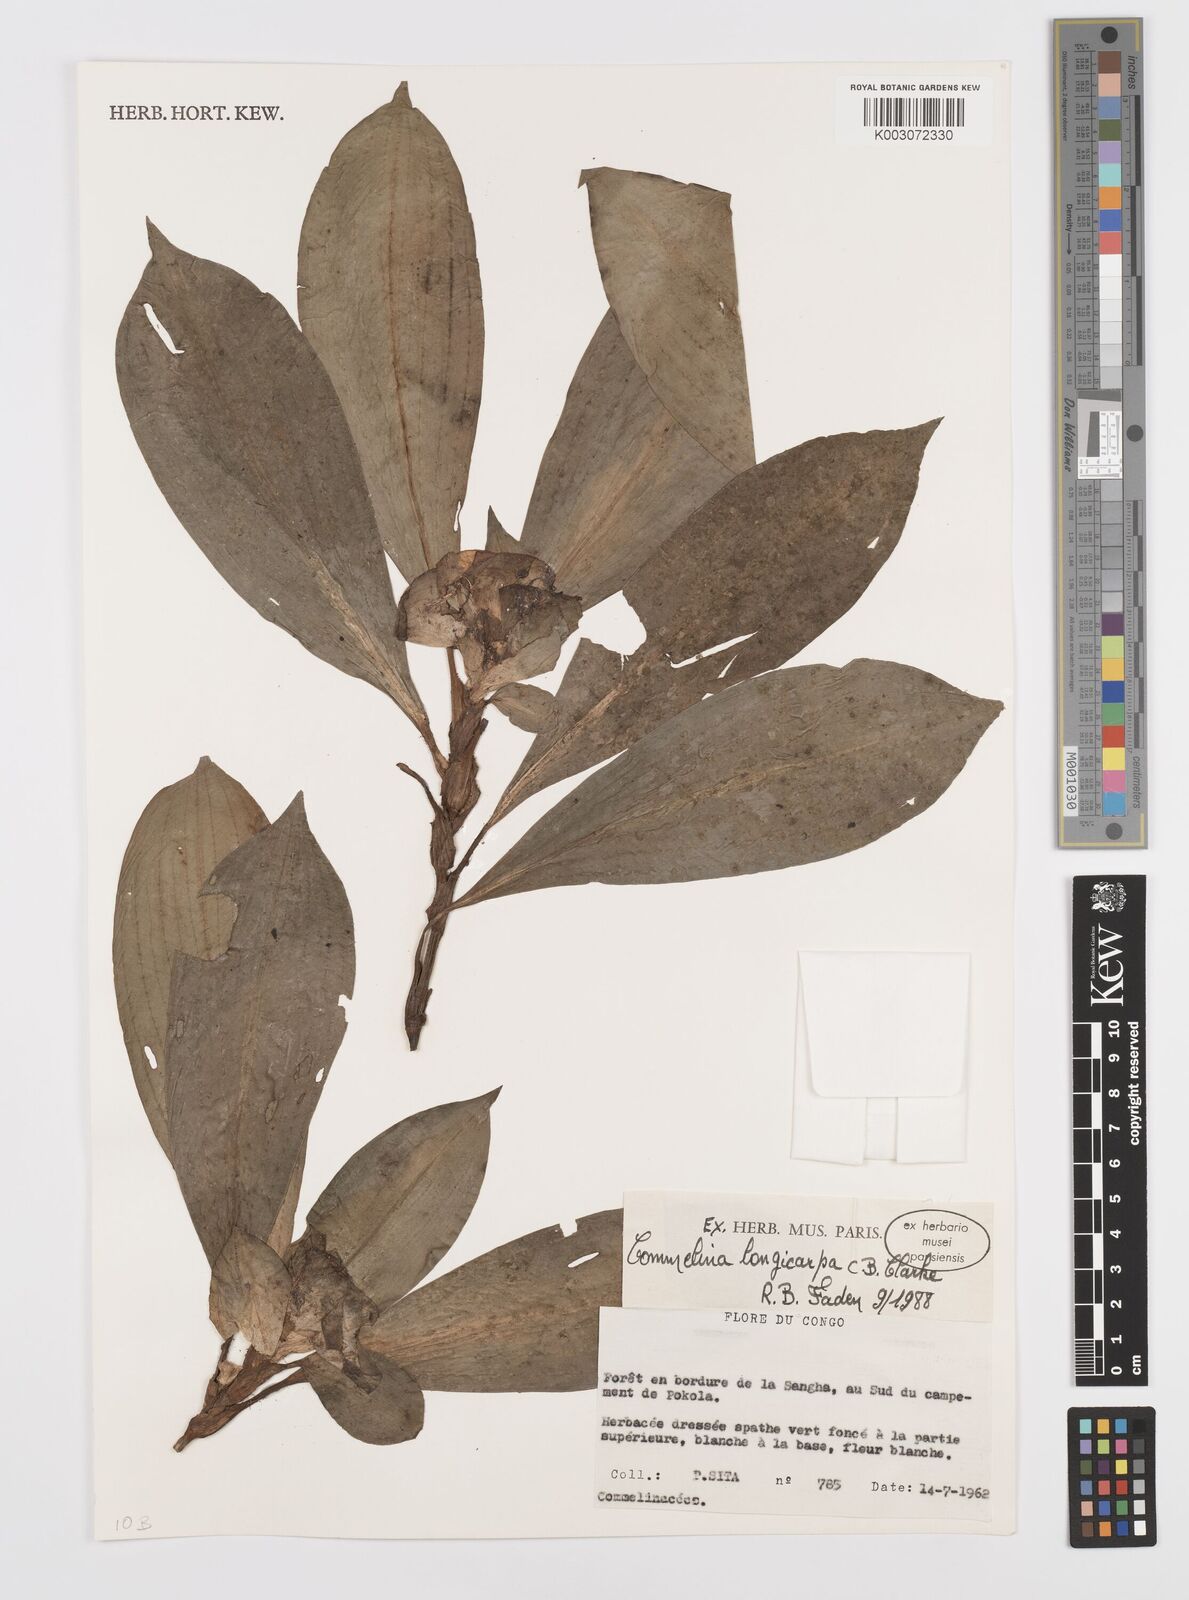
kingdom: Plantae
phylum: Tracheophyta
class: Liliopsida
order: Commelinales
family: Commelinaceae
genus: Commelina
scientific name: Commelina longicapsa
